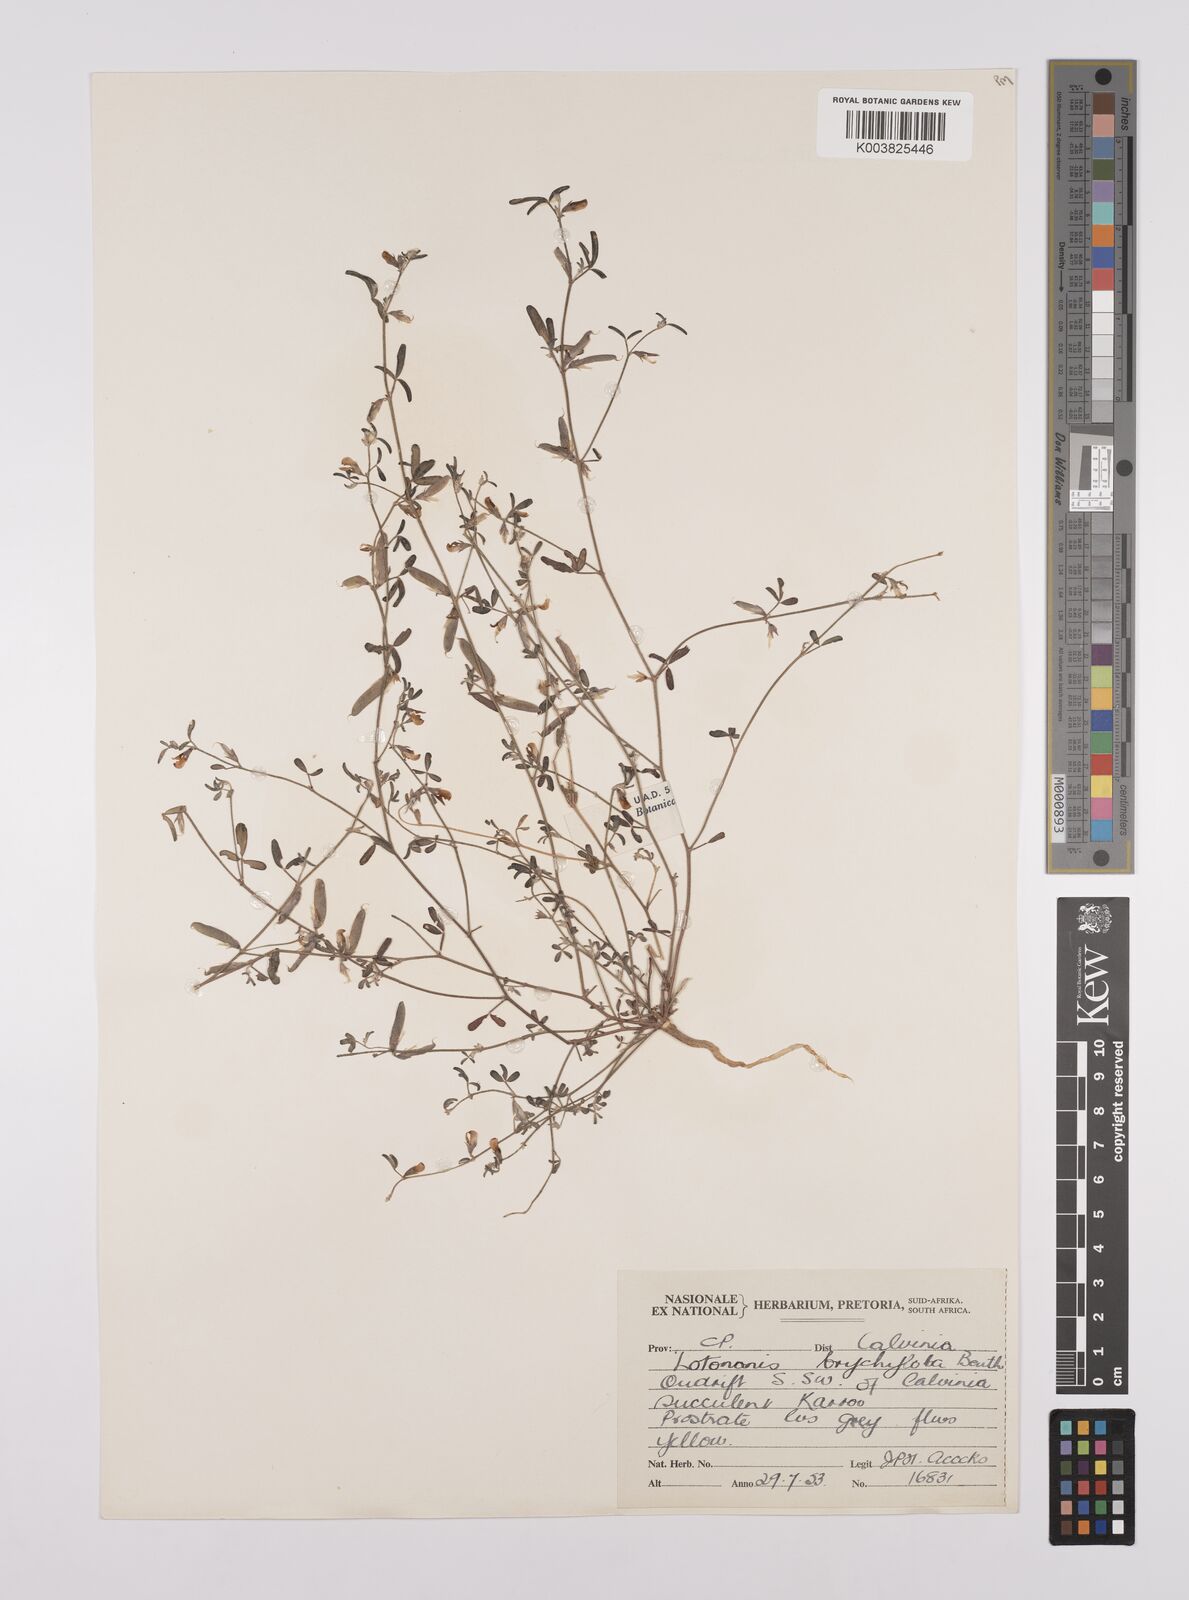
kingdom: Plantae
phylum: Tracheophyta
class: Magnoliopsida
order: Fabales
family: Fabaceae
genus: Lotononis
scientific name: Lotononis parviflora
